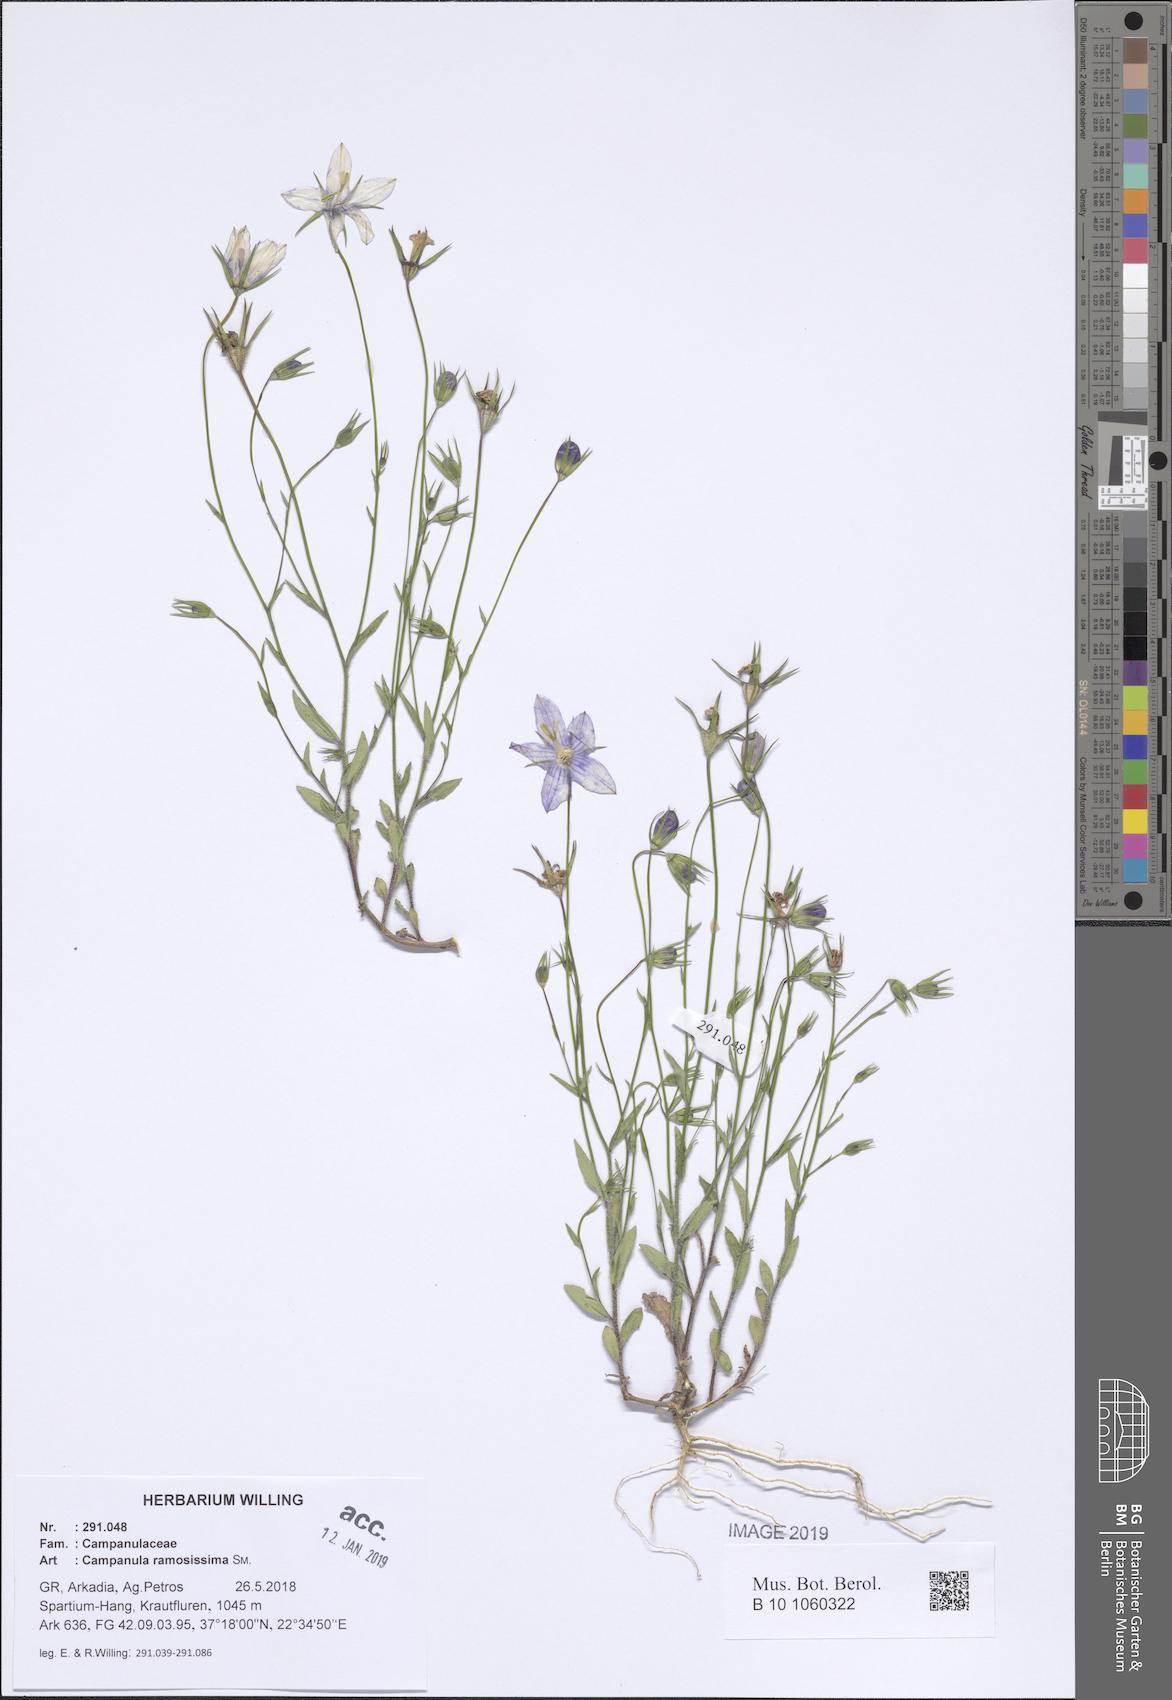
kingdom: Plantae
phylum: Tracheophyta
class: Magnoliopsida
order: Asterales
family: Campanulaceae
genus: Campanula
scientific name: Campanula ramosissima
